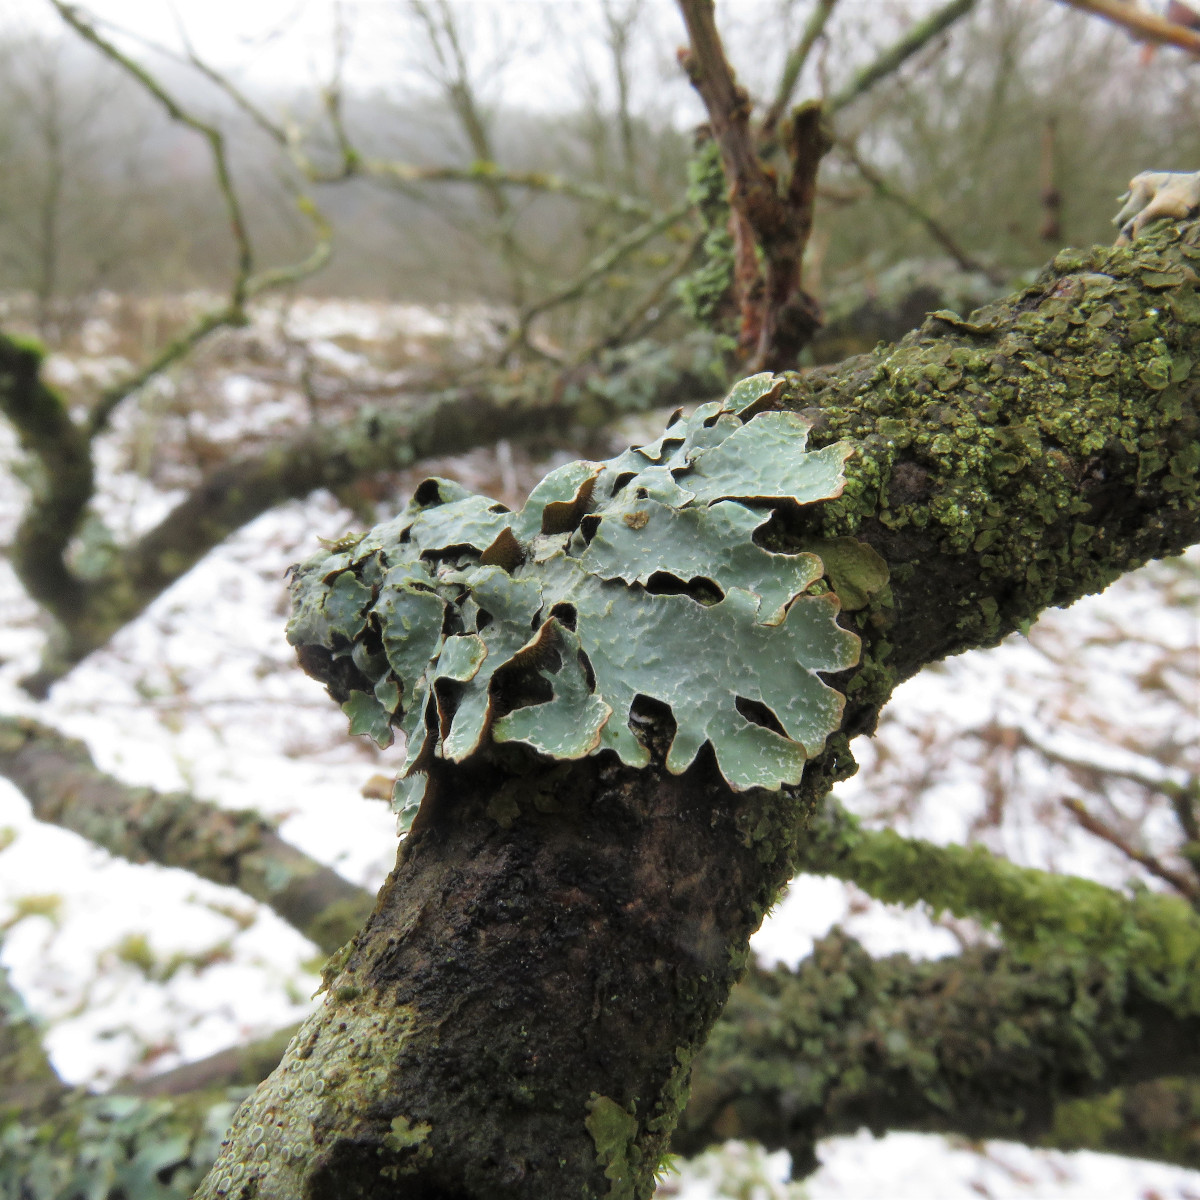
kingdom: Fungi
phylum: Ascomycota
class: Lecanoromycetes
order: Lecanorales
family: Parmeliaceae
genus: Parmelia
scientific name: Parmelia sulcata
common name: rynket skållav
